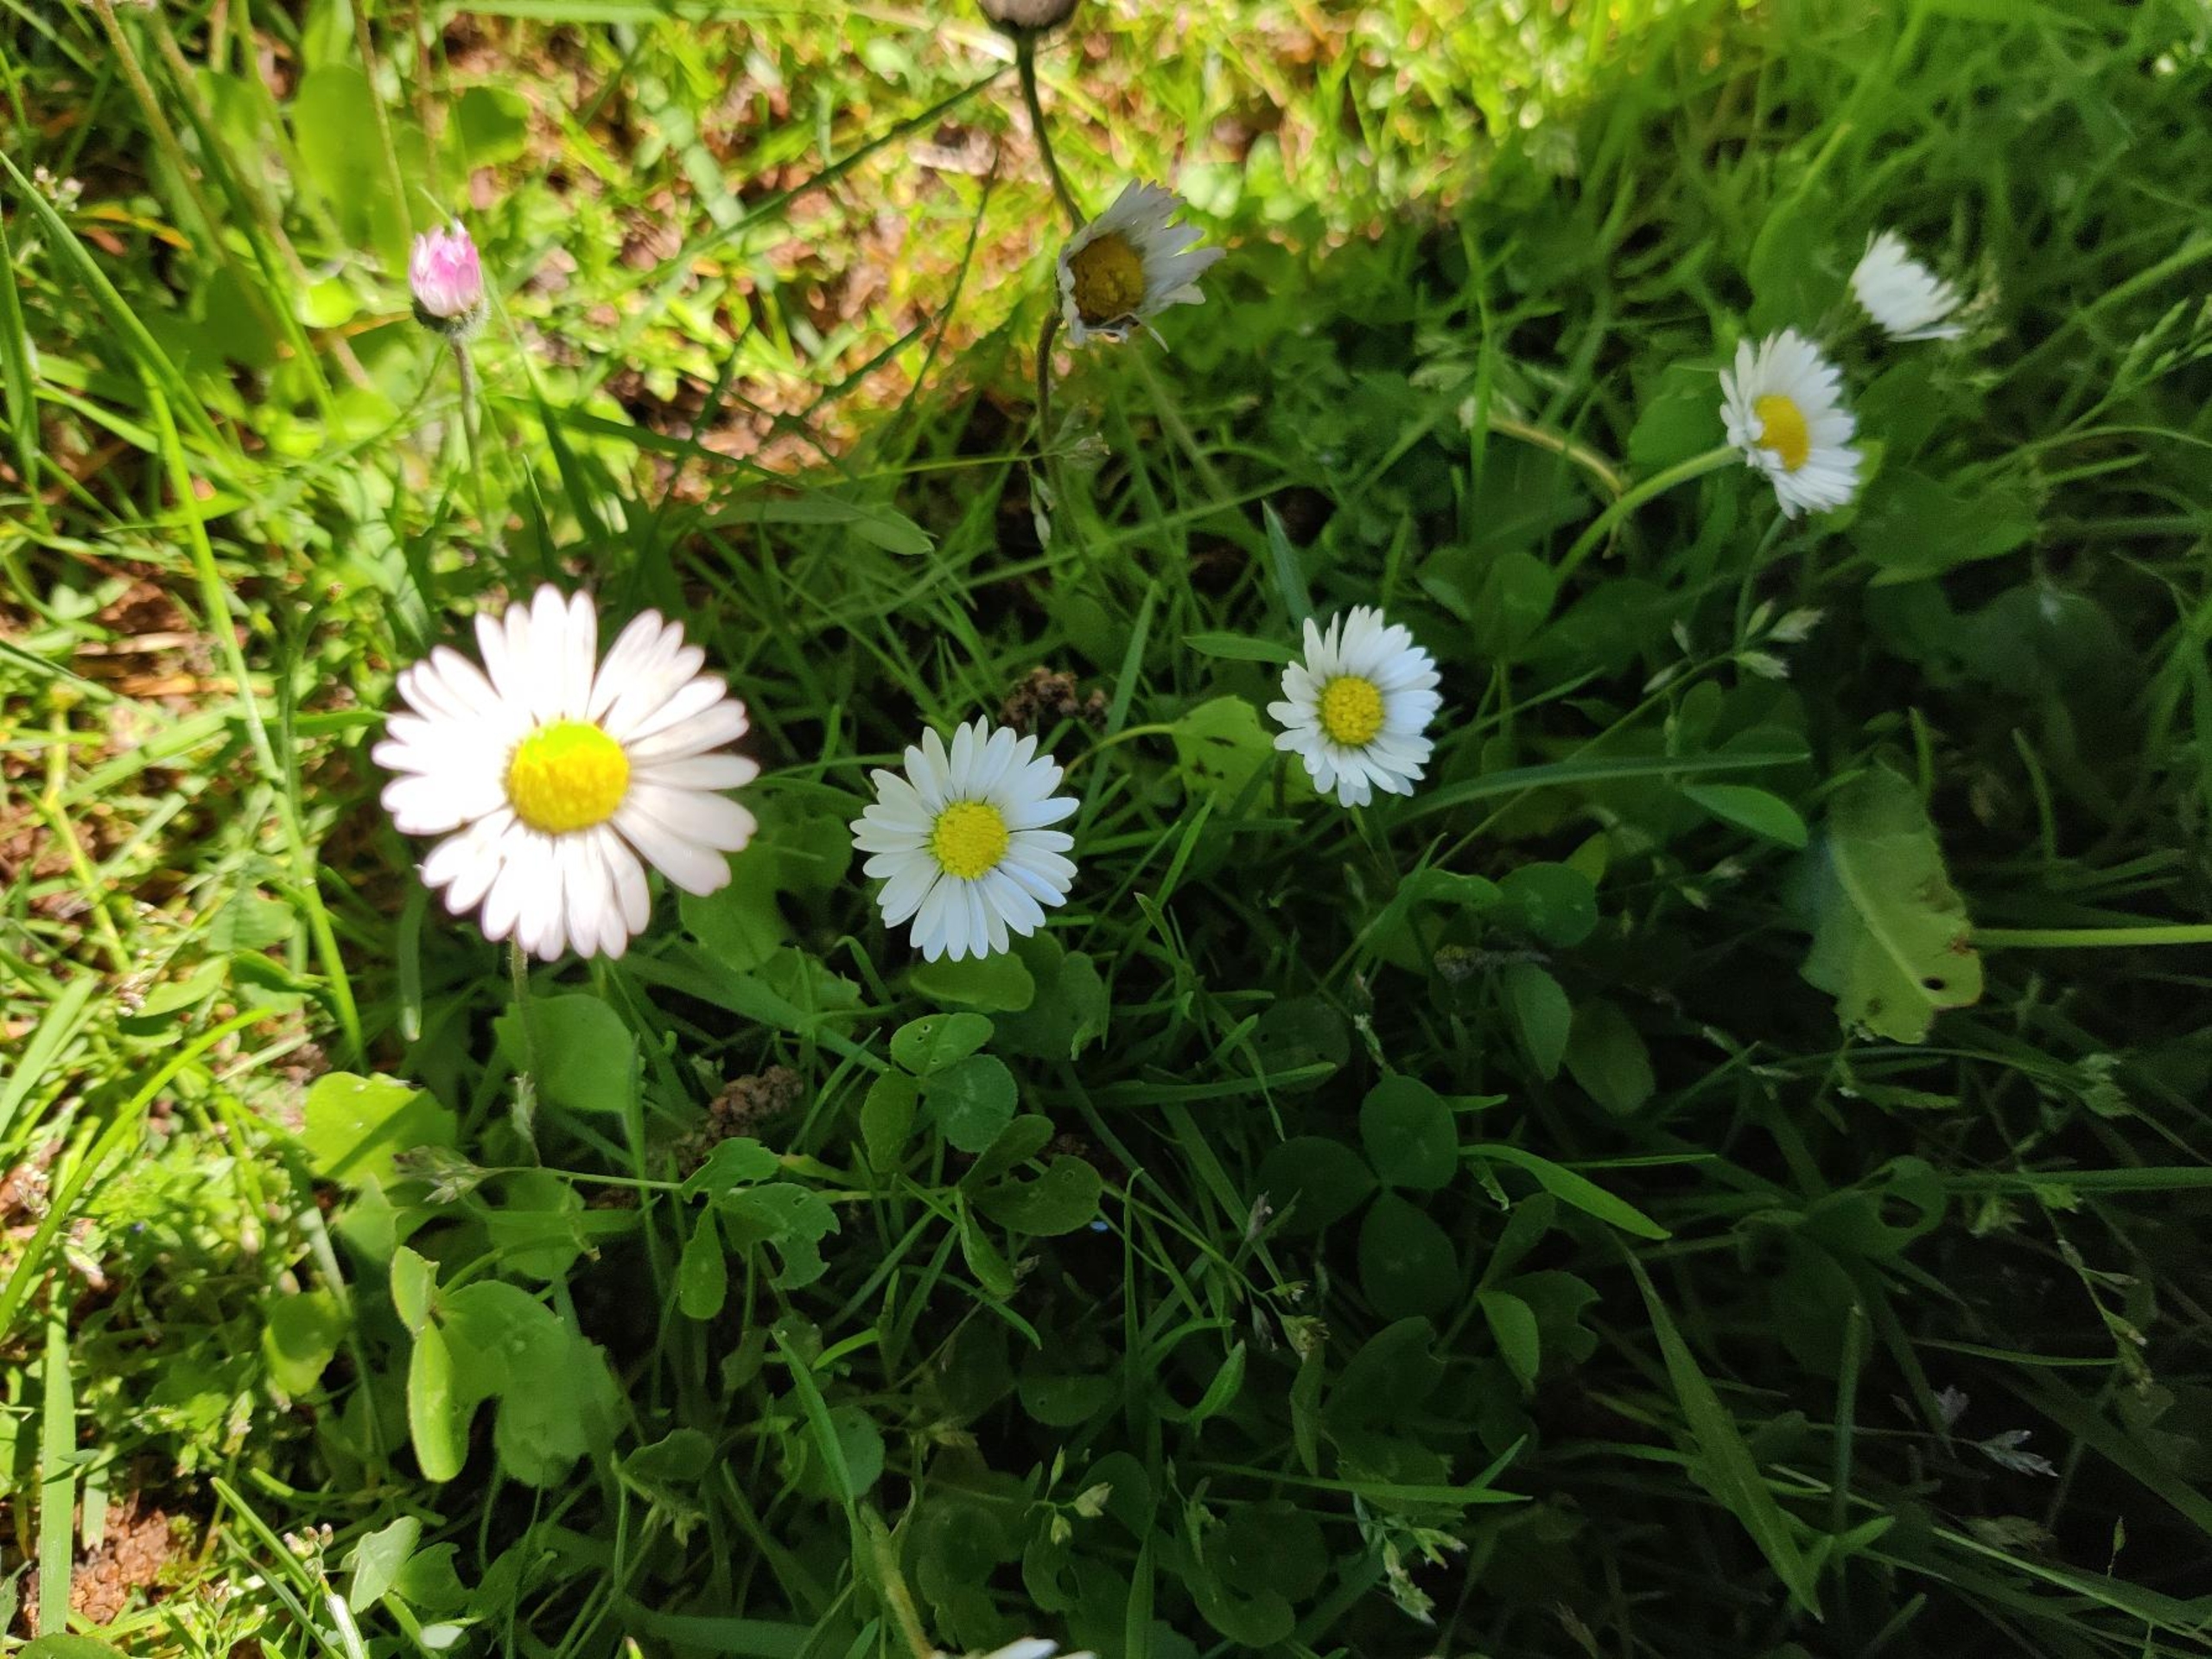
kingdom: Plantae
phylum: Tracheophyta
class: Magnoliopsida
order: Asterales
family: Asteraceae
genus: Bellis
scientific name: Bellis perennis
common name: Tusindfryd
